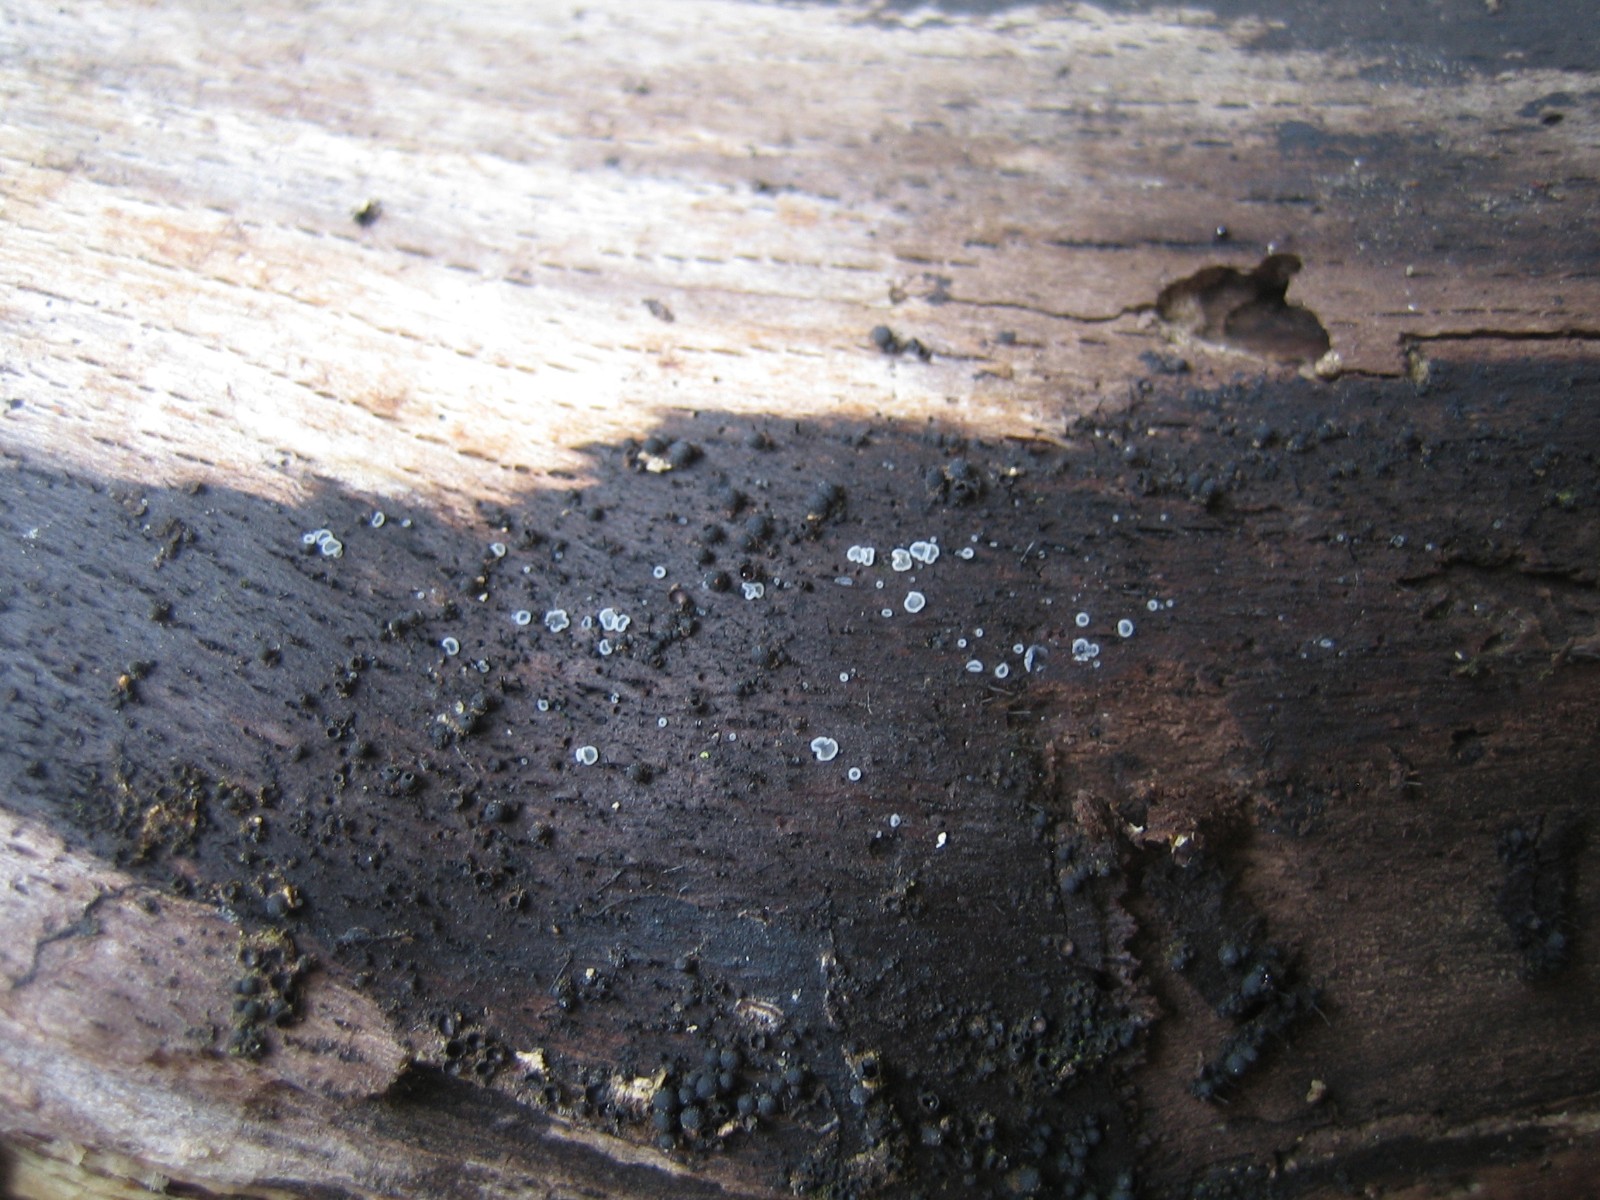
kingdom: Fungi
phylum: Ascomycota
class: Leotiomycetes
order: Helotiales
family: Mollisiaceae
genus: Mollisia
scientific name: Mollisia cinerea
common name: almindelig gråskive
